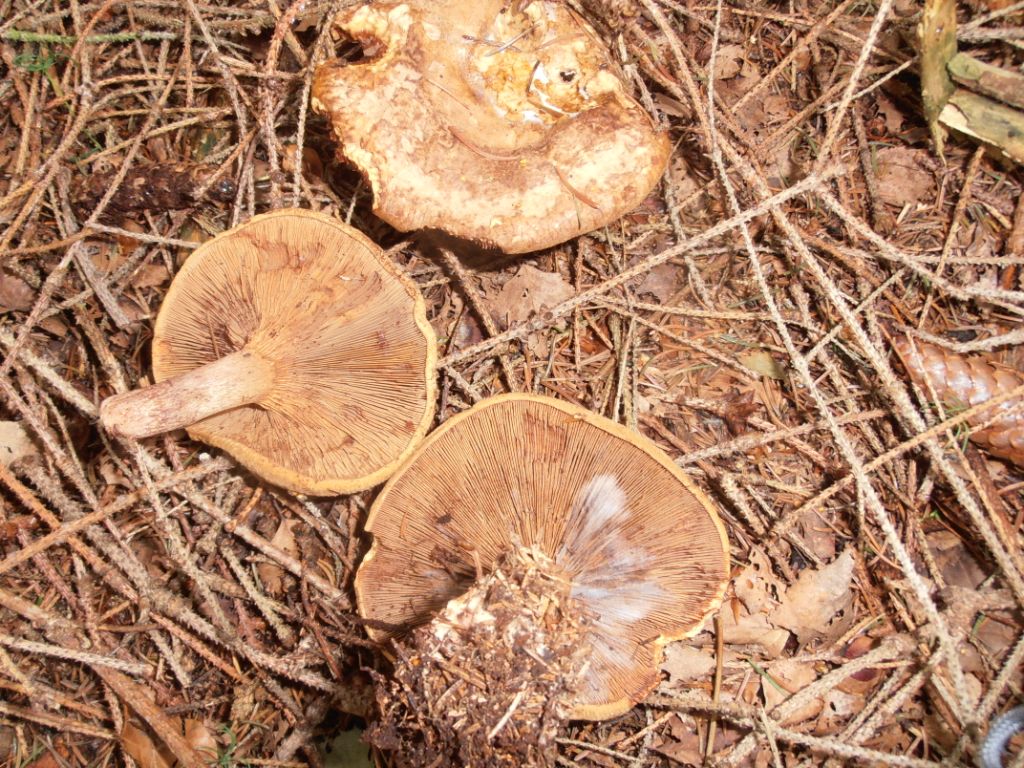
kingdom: Fungi
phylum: Basidiomycota
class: Agaricomycetes
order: Boletales
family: Paxillaceae
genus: Paxillus
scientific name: Paxillus involutus
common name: almindelig netbladhat
